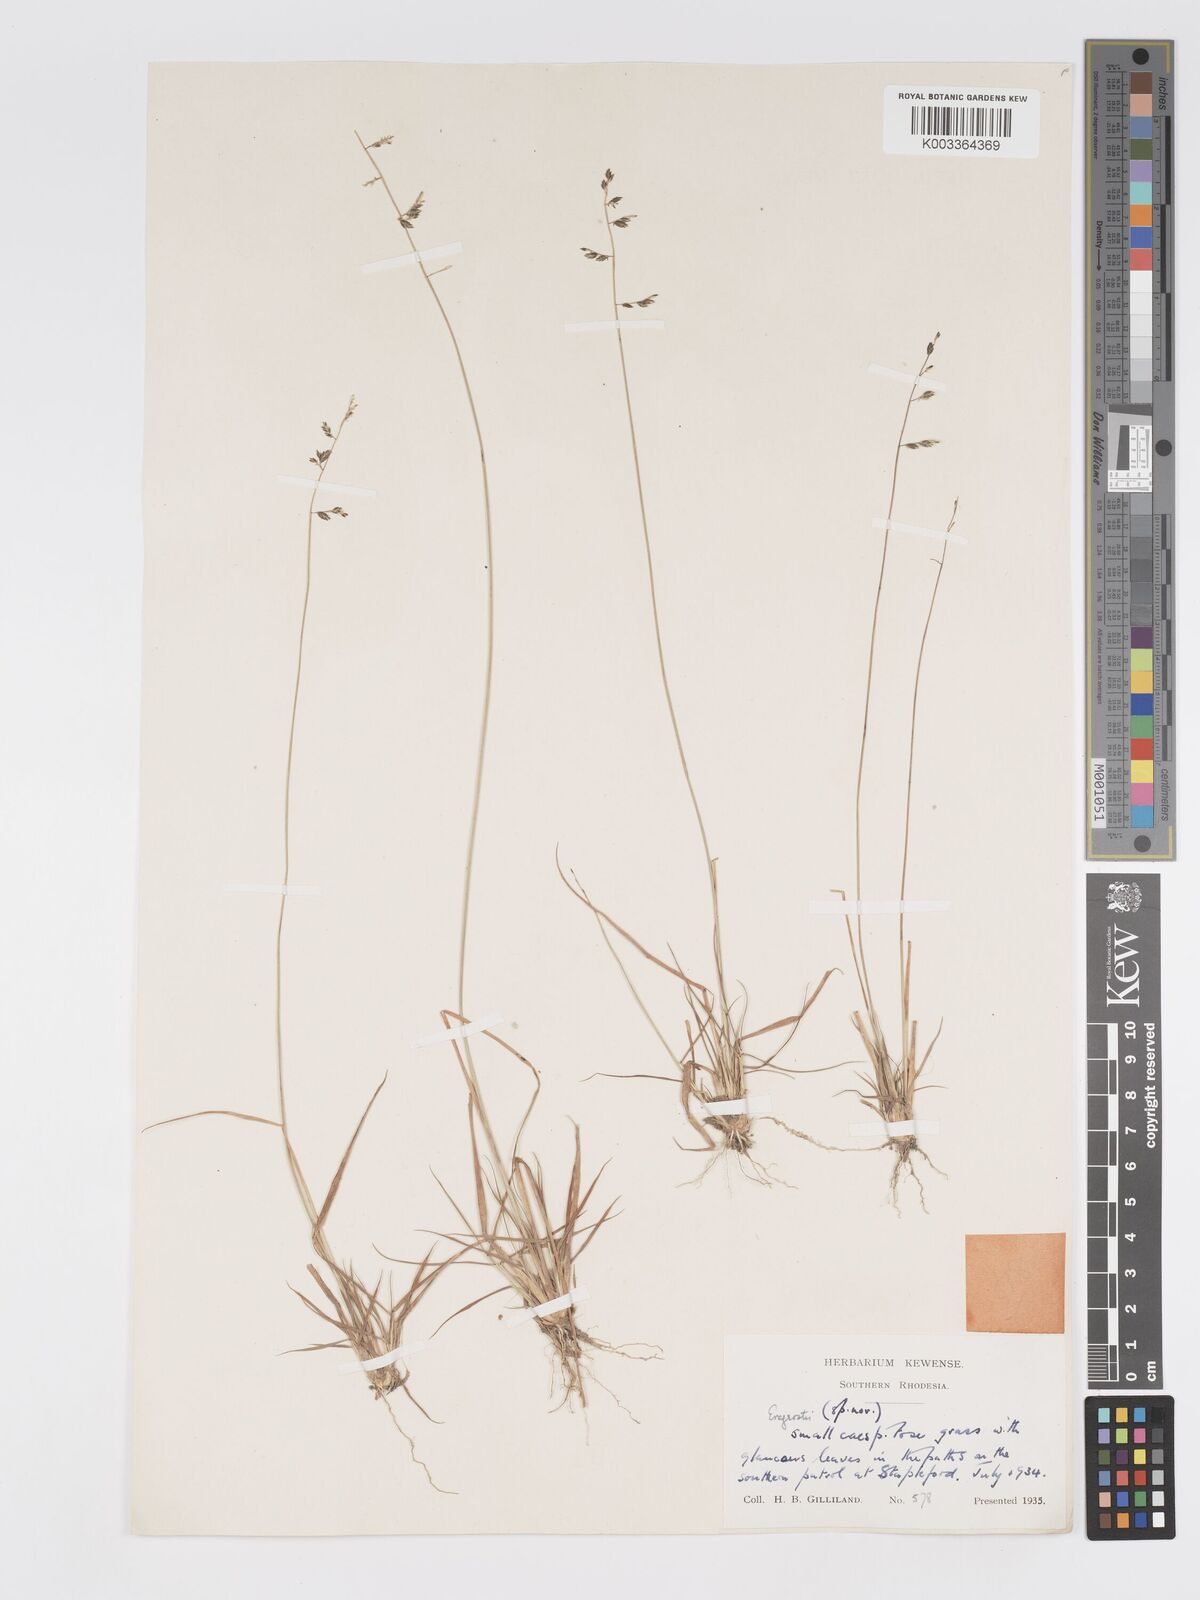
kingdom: Plantae
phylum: Tracheophyta
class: Liliopsida
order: Poales
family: Poaceae
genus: Eragrostis
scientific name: Eragrostis racemosa
